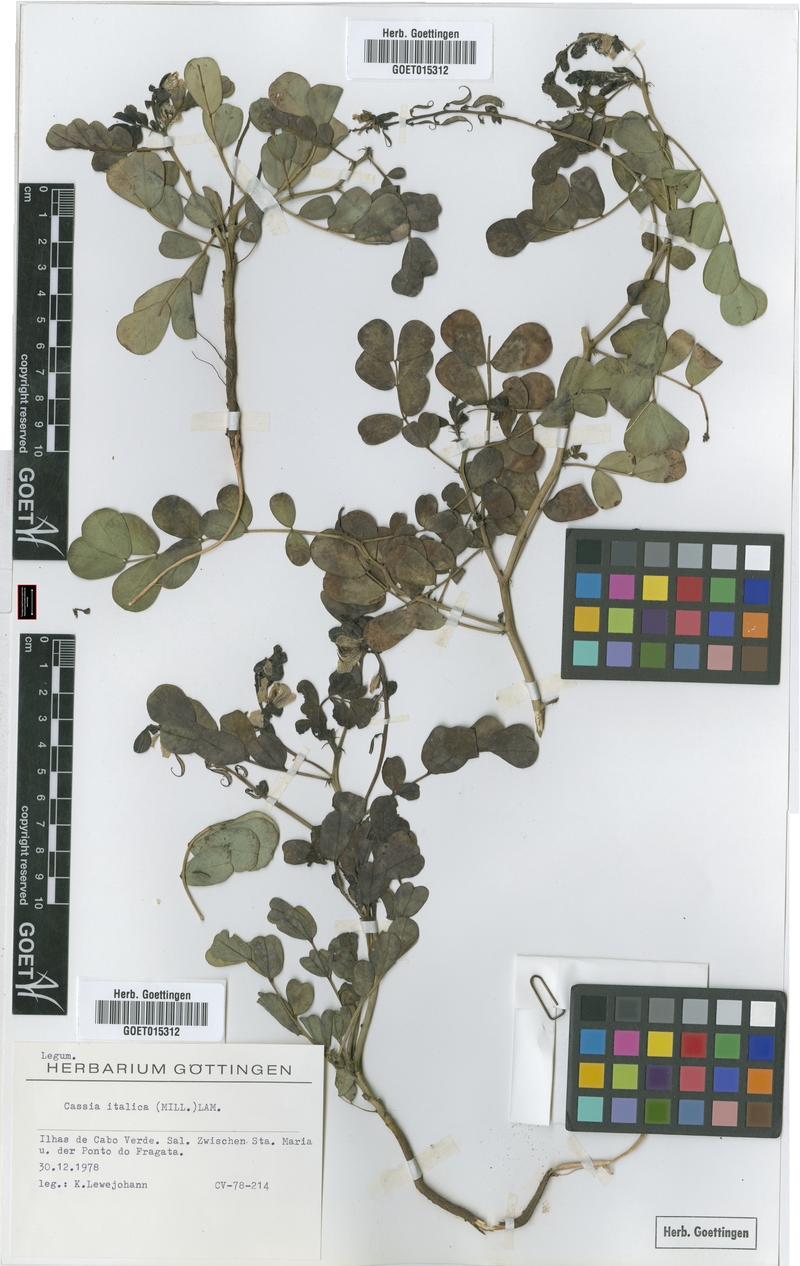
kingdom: Plantae
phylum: Tracheophyta
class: Magnoliopsida
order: Fabales
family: Fabaceae
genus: Senna
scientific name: Senna italica
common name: Port royal senna
